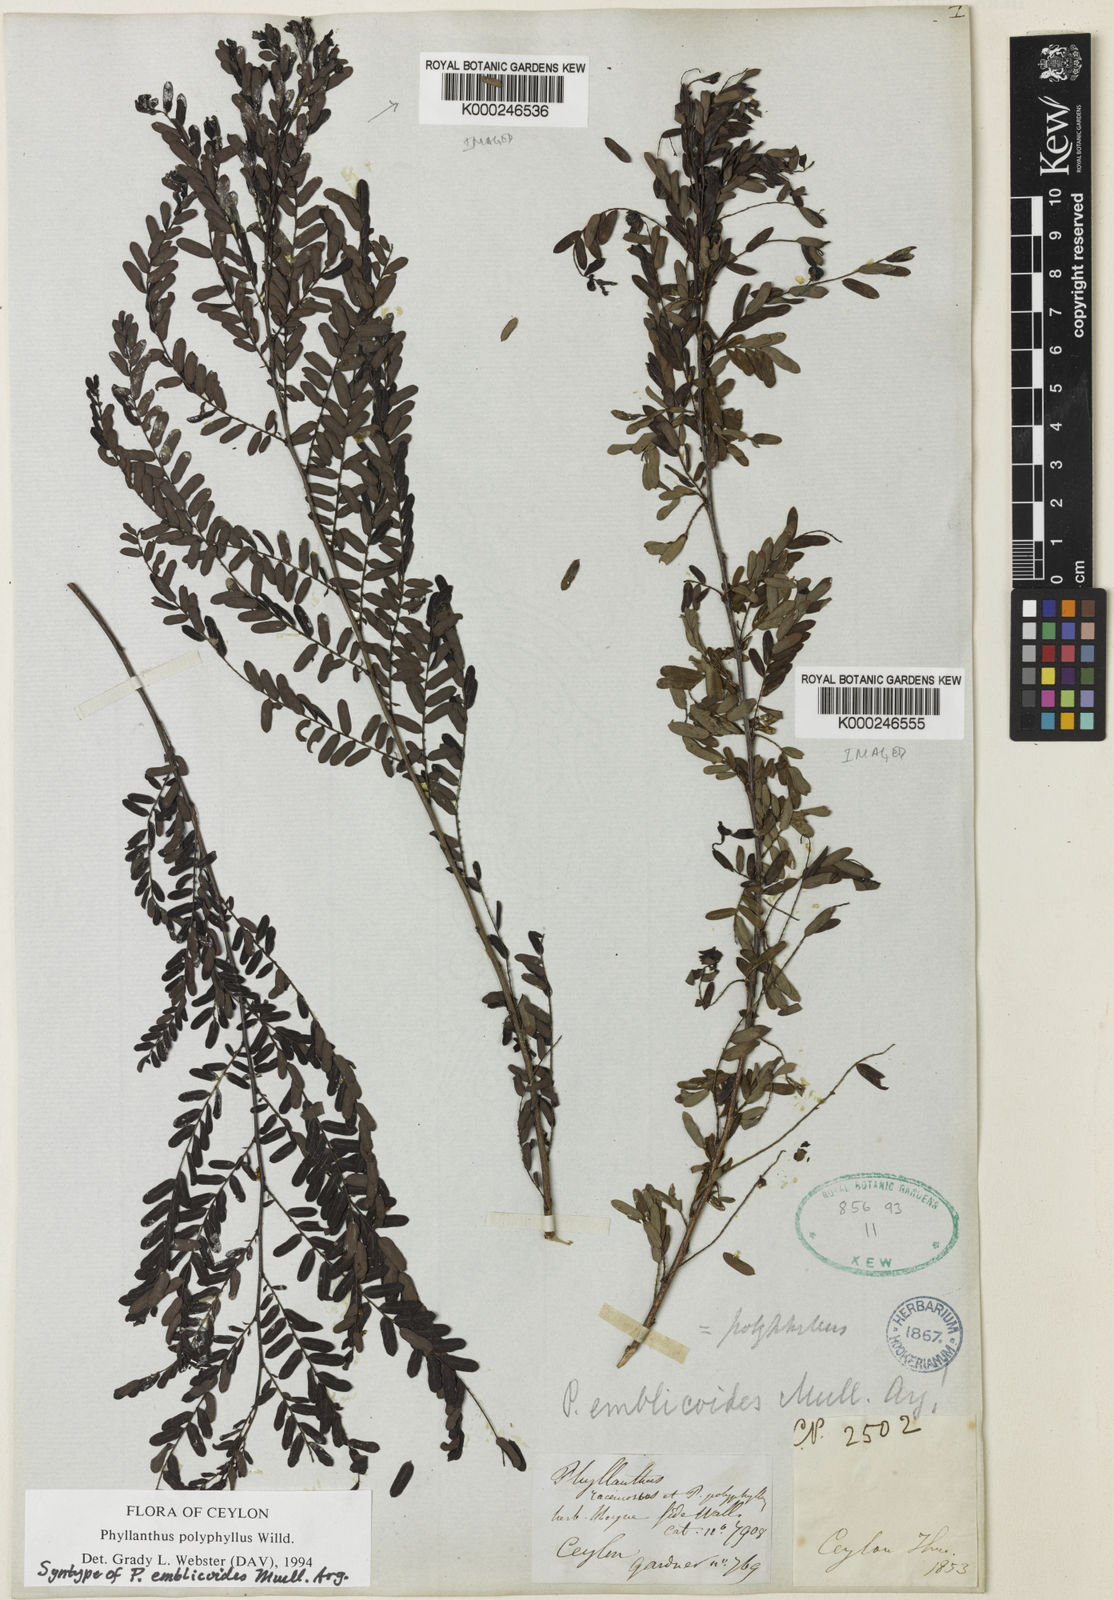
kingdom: Plantae
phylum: Tracheophyta
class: Magnoliopsida
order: Malpighiales
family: Phyllanthaceae
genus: Phyllanthus
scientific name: Phyllanthus racemosus
